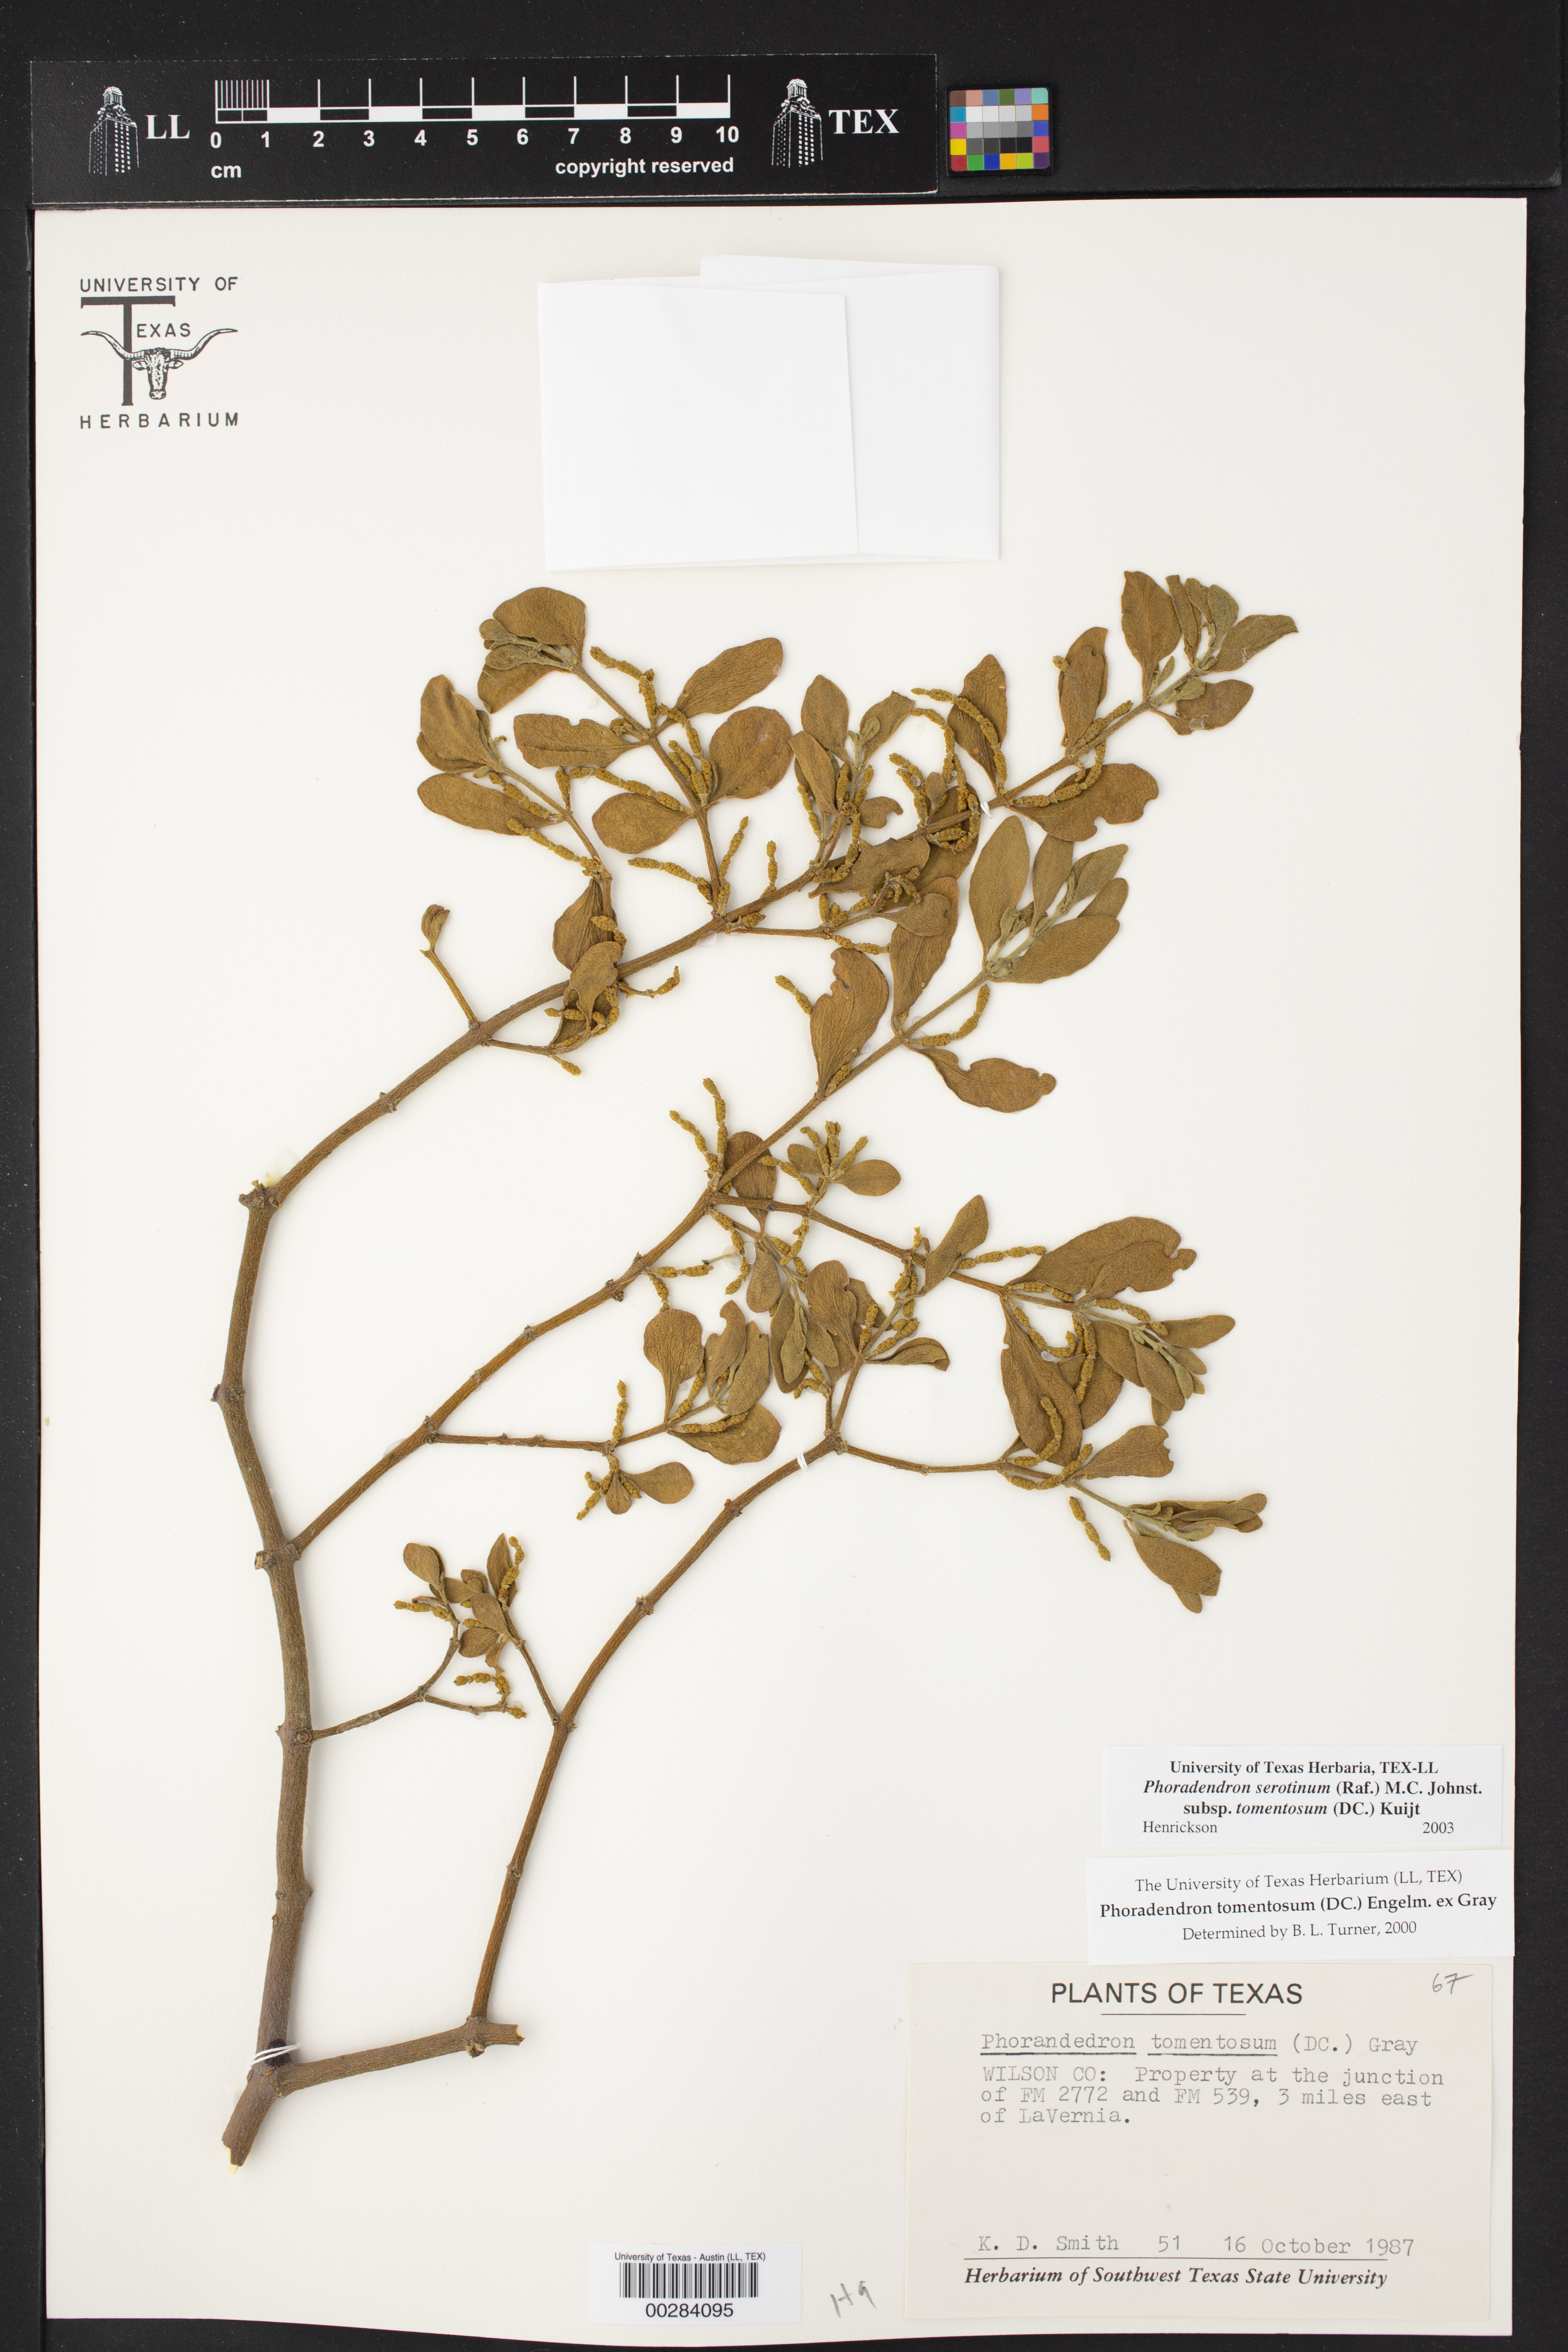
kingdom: Plantae
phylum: Tracheophyta
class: Magnoliopsida
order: Santalales
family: Viscaceae
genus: Phoradendron
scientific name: Phoradendron leucarpum
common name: Pacific mistletoe
